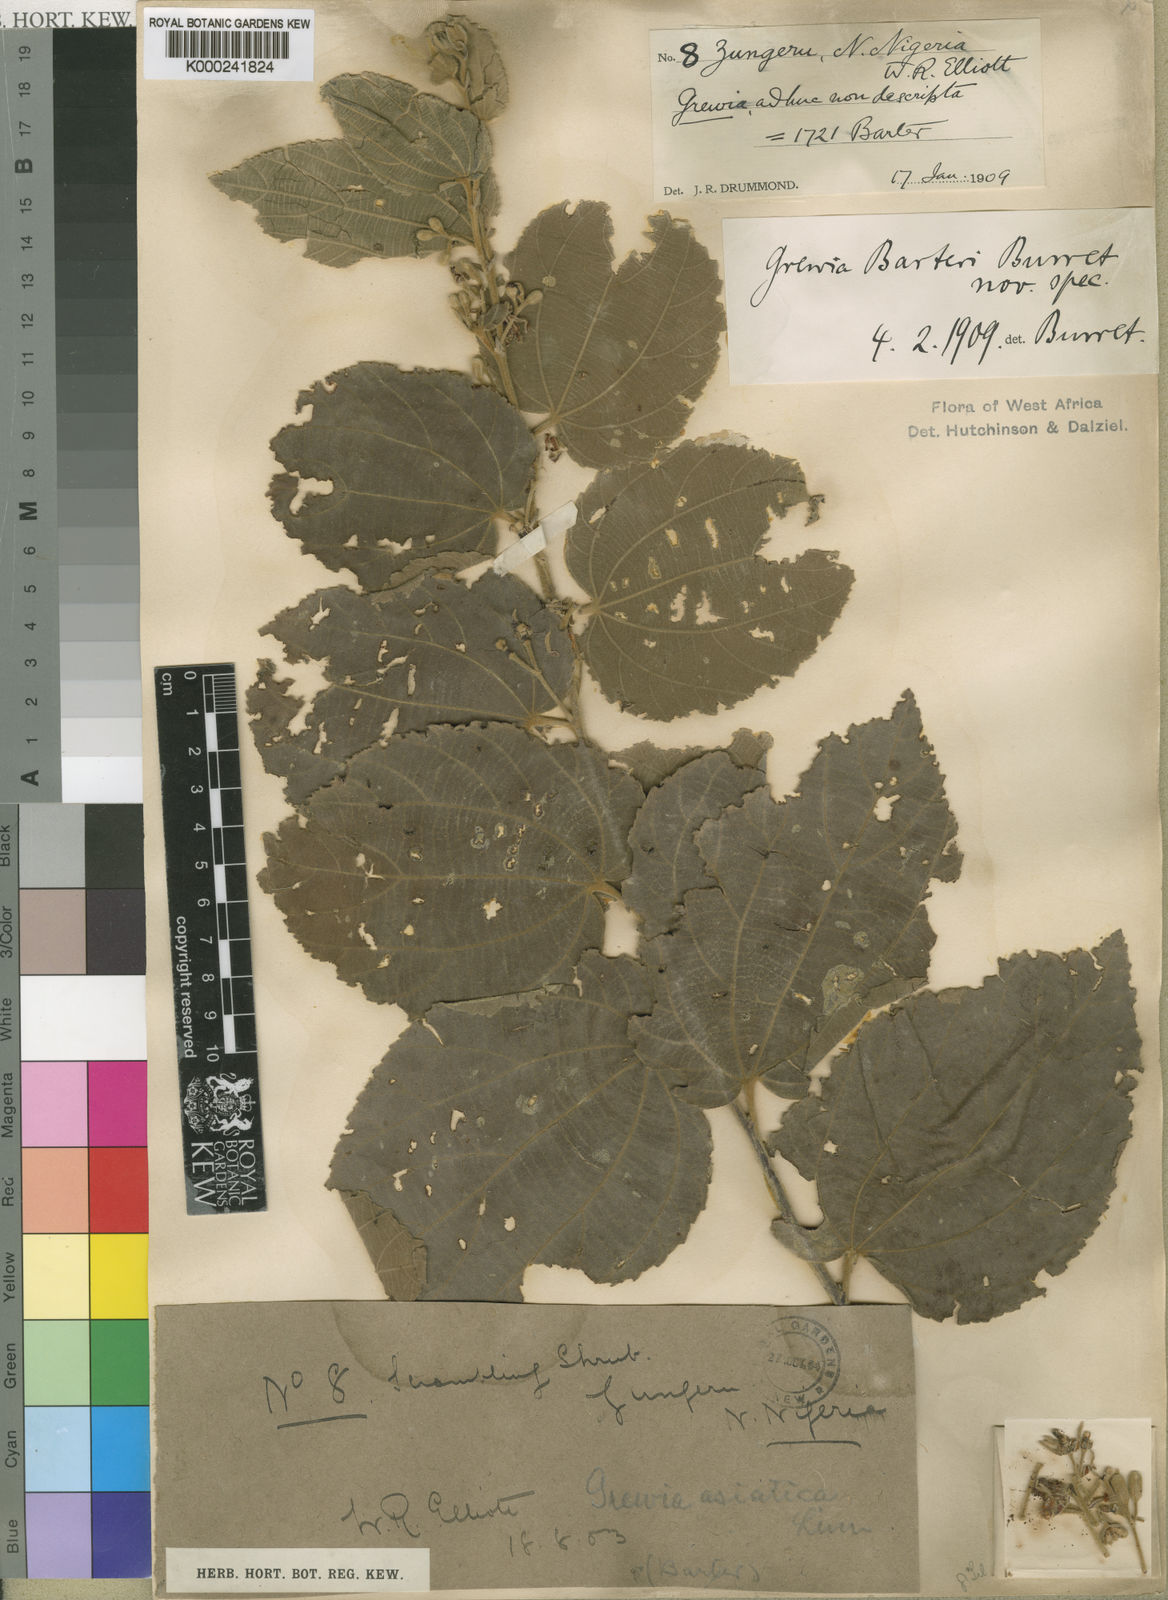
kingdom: Plantae
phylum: Tracheophyta
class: Magnoliopsida
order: Malvales
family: Malvaceae
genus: Grewia
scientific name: Grewia barteri
